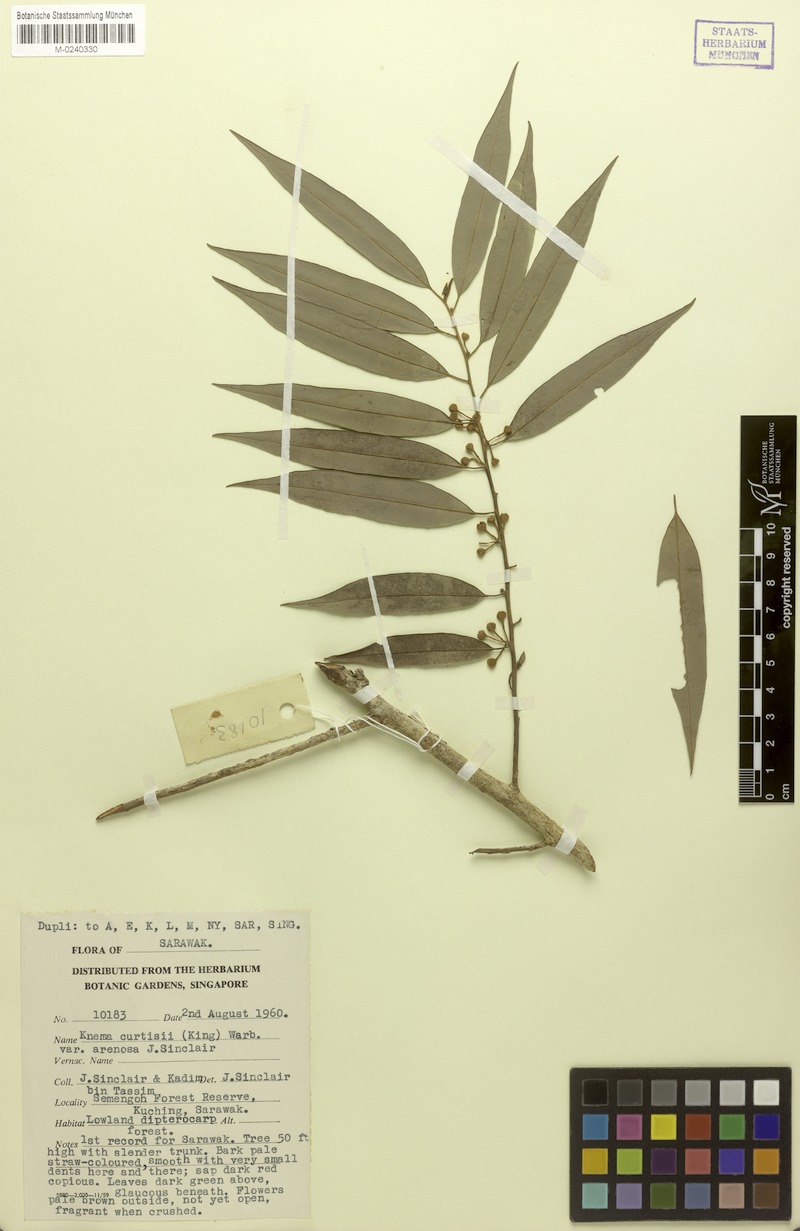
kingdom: Plantae
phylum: Tracheophyta
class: Magnoliopsida
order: Magnoliales
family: Myristicaceae
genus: Knema
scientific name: Knema curtisii
